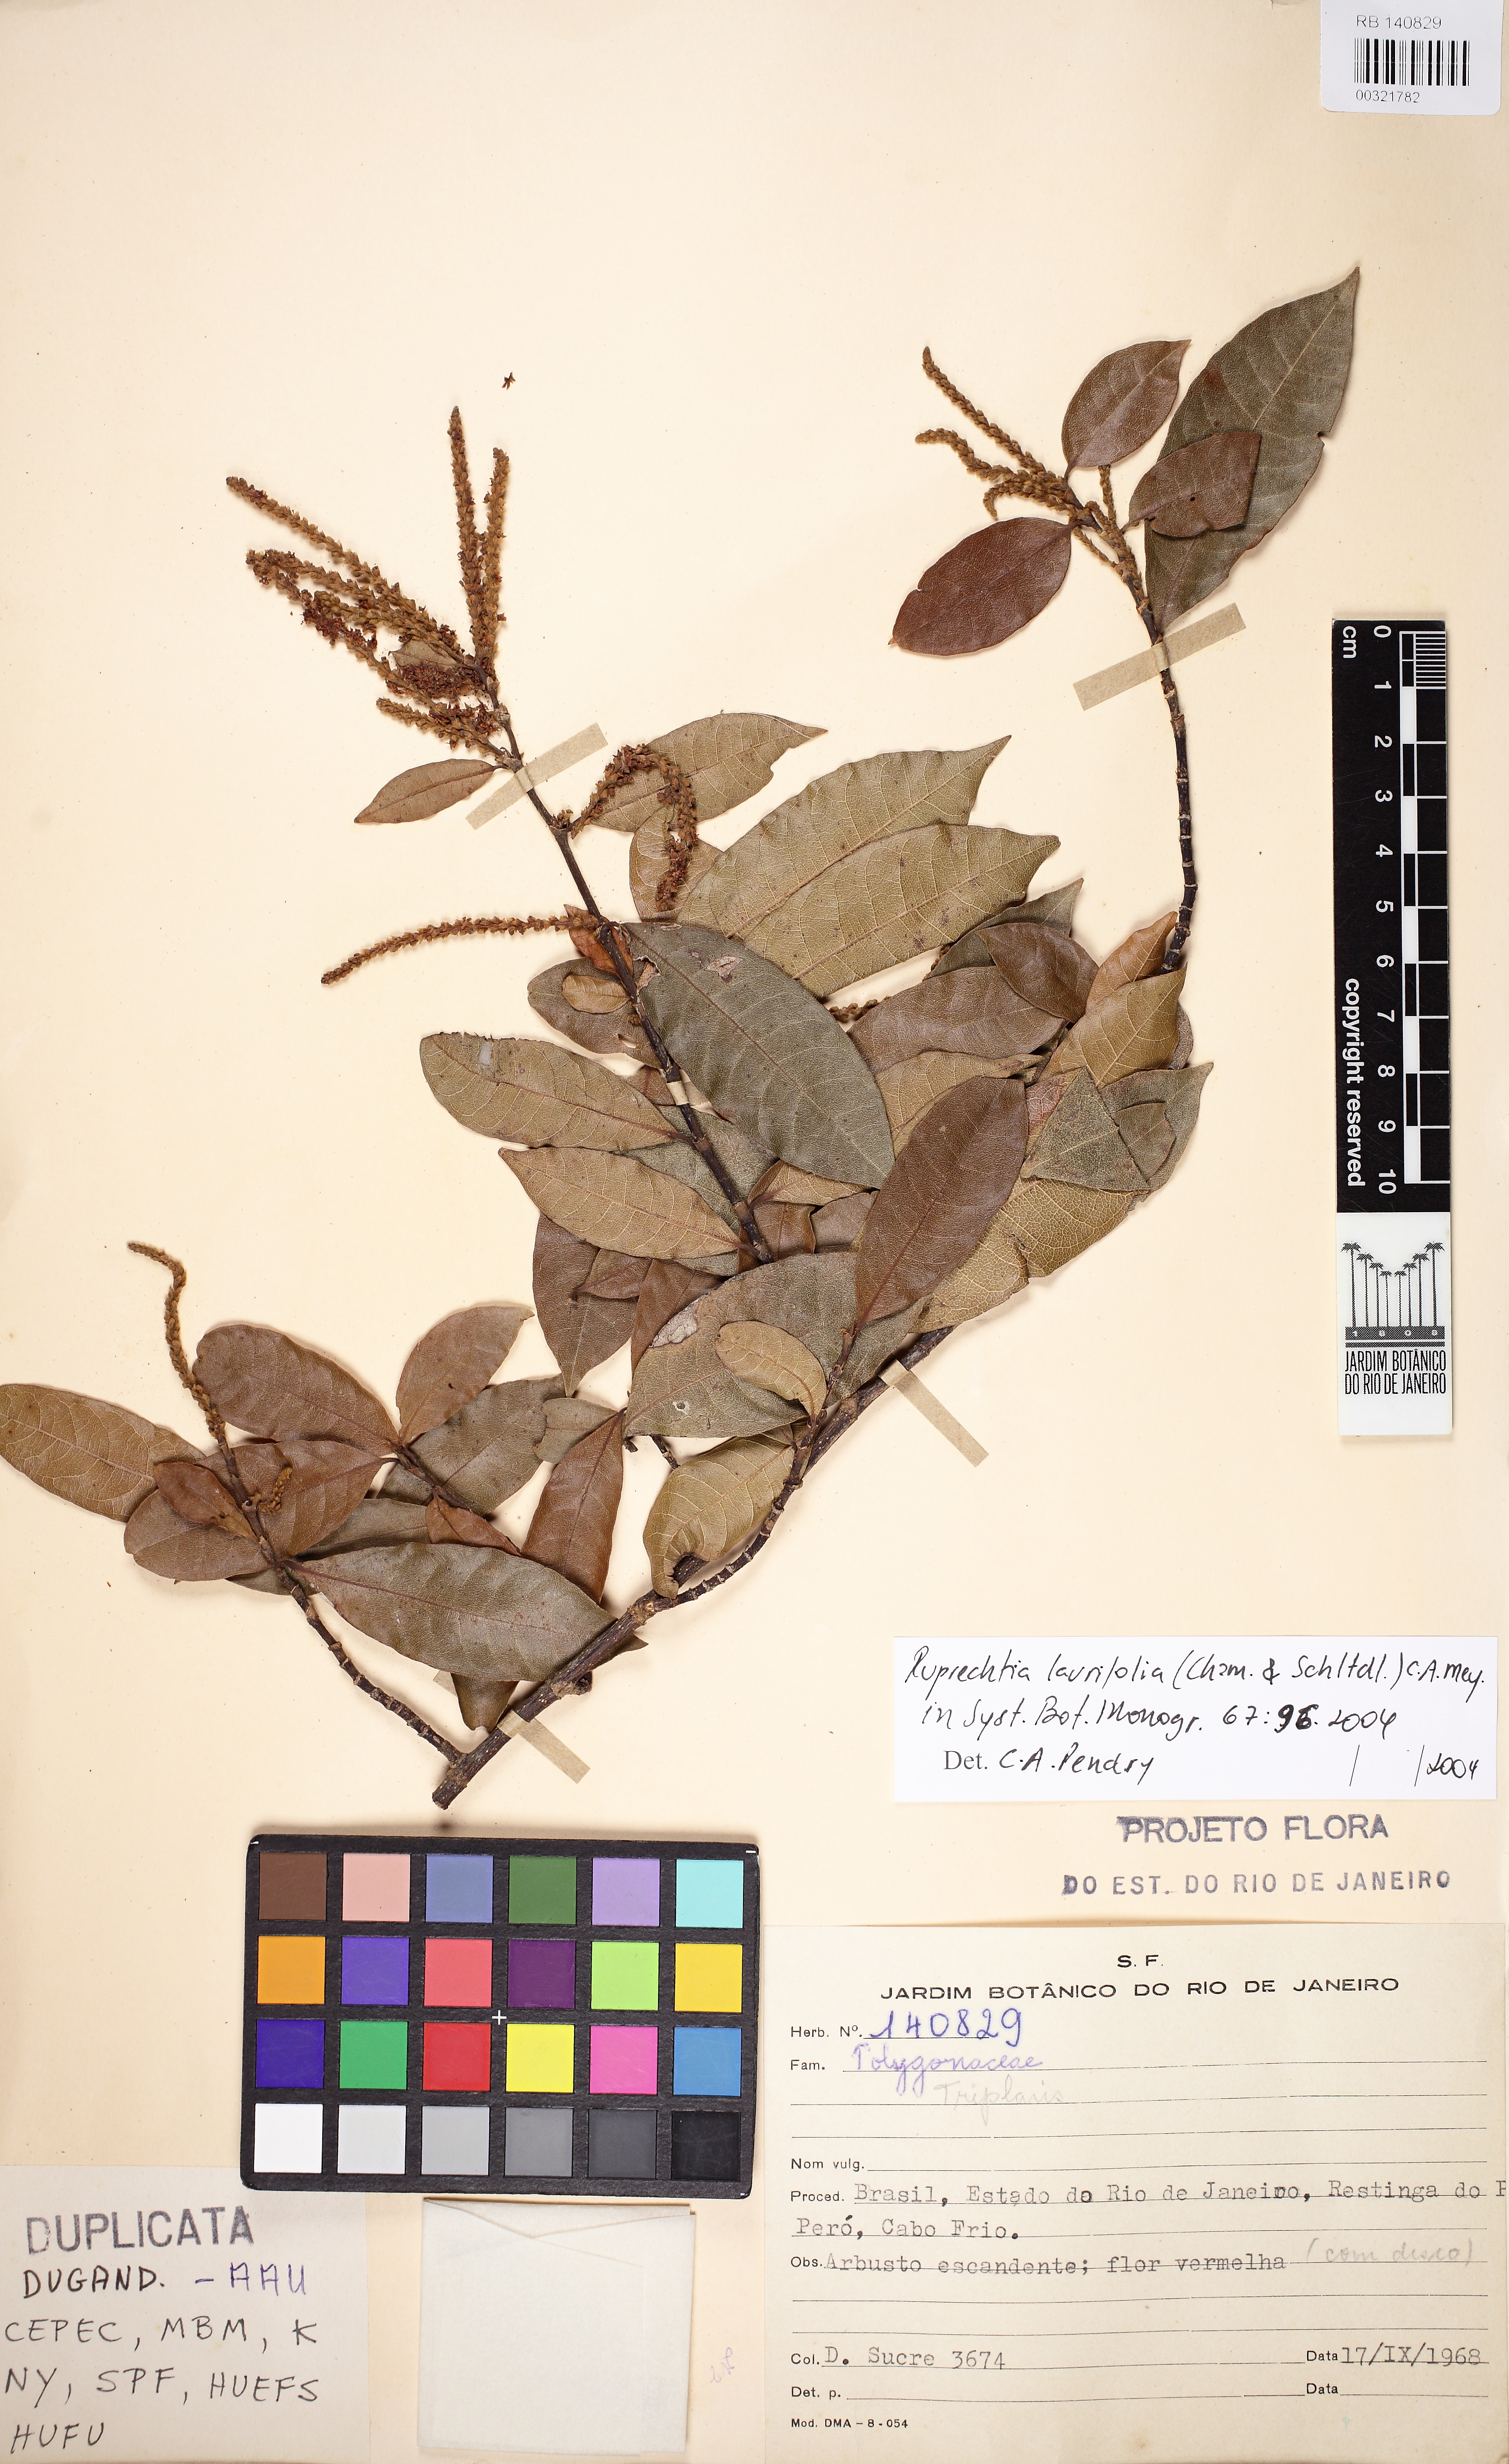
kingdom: Plantae
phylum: Tracheophyta
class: Magnoliopsida
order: Caryophyllales
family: Polygonaceae
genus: Magoniella
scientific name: Magoniella obidensis
